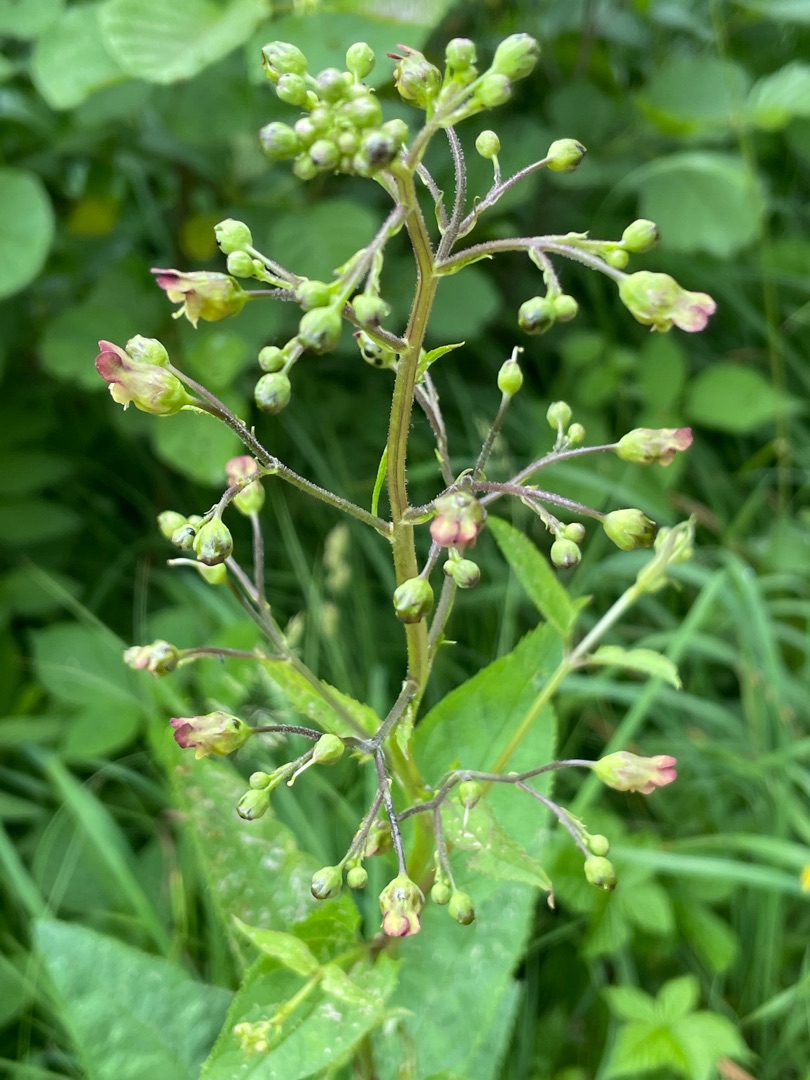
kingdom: Plantae
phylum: Tracheophyta
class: Magnoliopsida
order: Lamiales
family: Scrophulariaceae
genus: Scrophularia
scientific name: Scrophularia nodosa
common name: Knoldet brunrod
